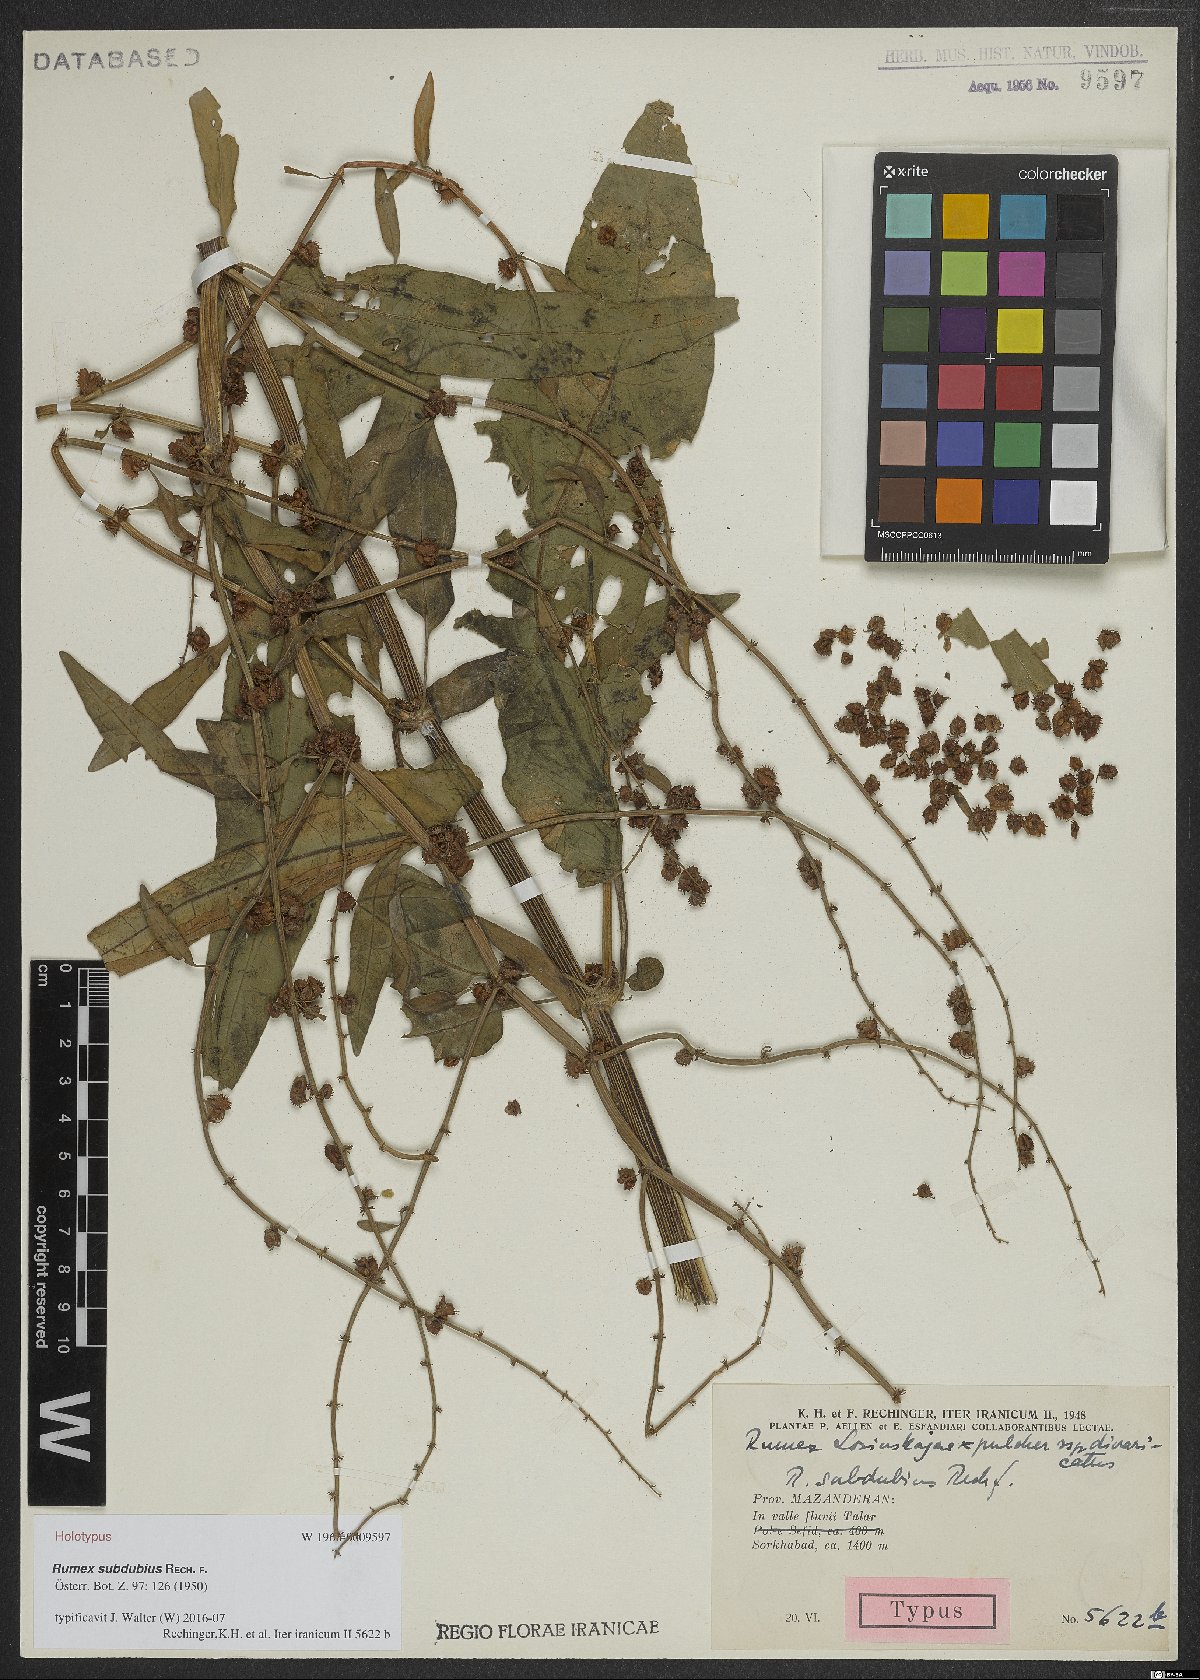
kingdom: Plantae
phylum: Tracheophyta
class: Magnoliopsida
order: Caryophyllales
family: Polygonaceae
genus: Rumex
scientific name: Rumex subdubius
